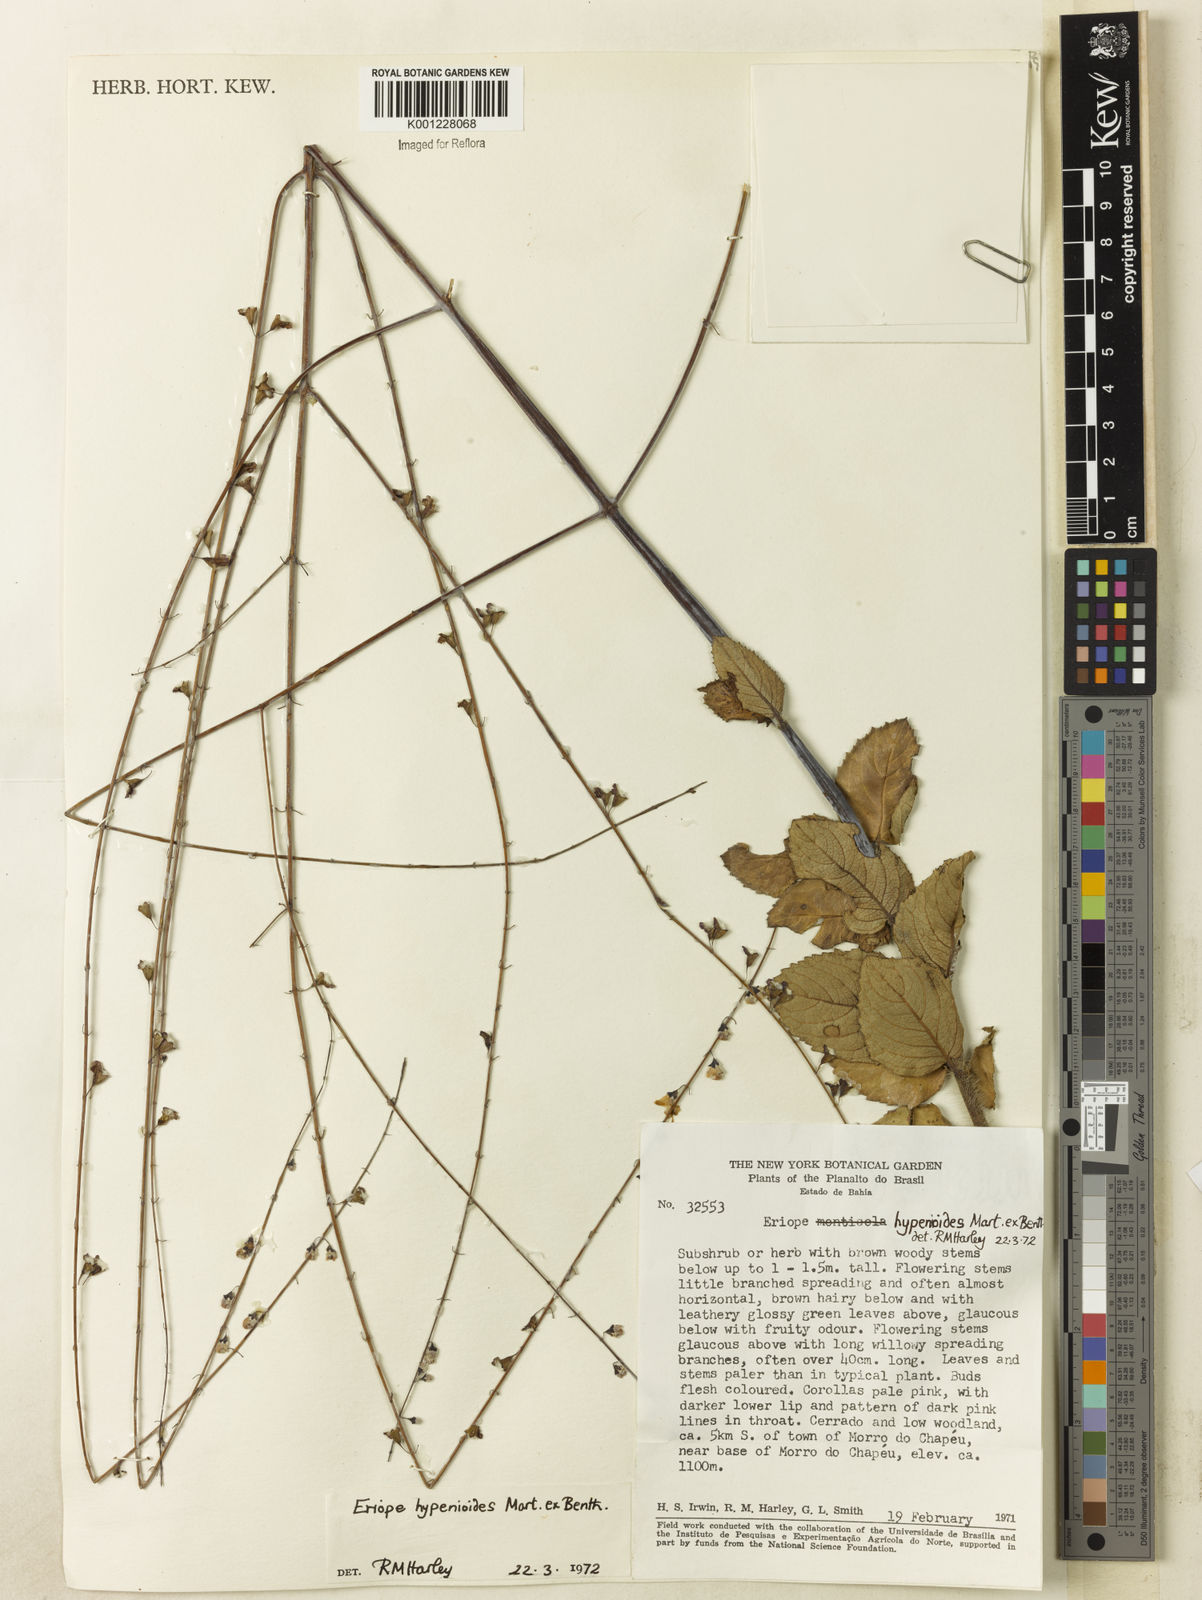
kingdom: Plantae
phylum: Tracheophyta
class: Magnoliopsida
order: Lamiales
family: Lamiaceae
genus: Eriope
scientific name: Eriope hypenioides
